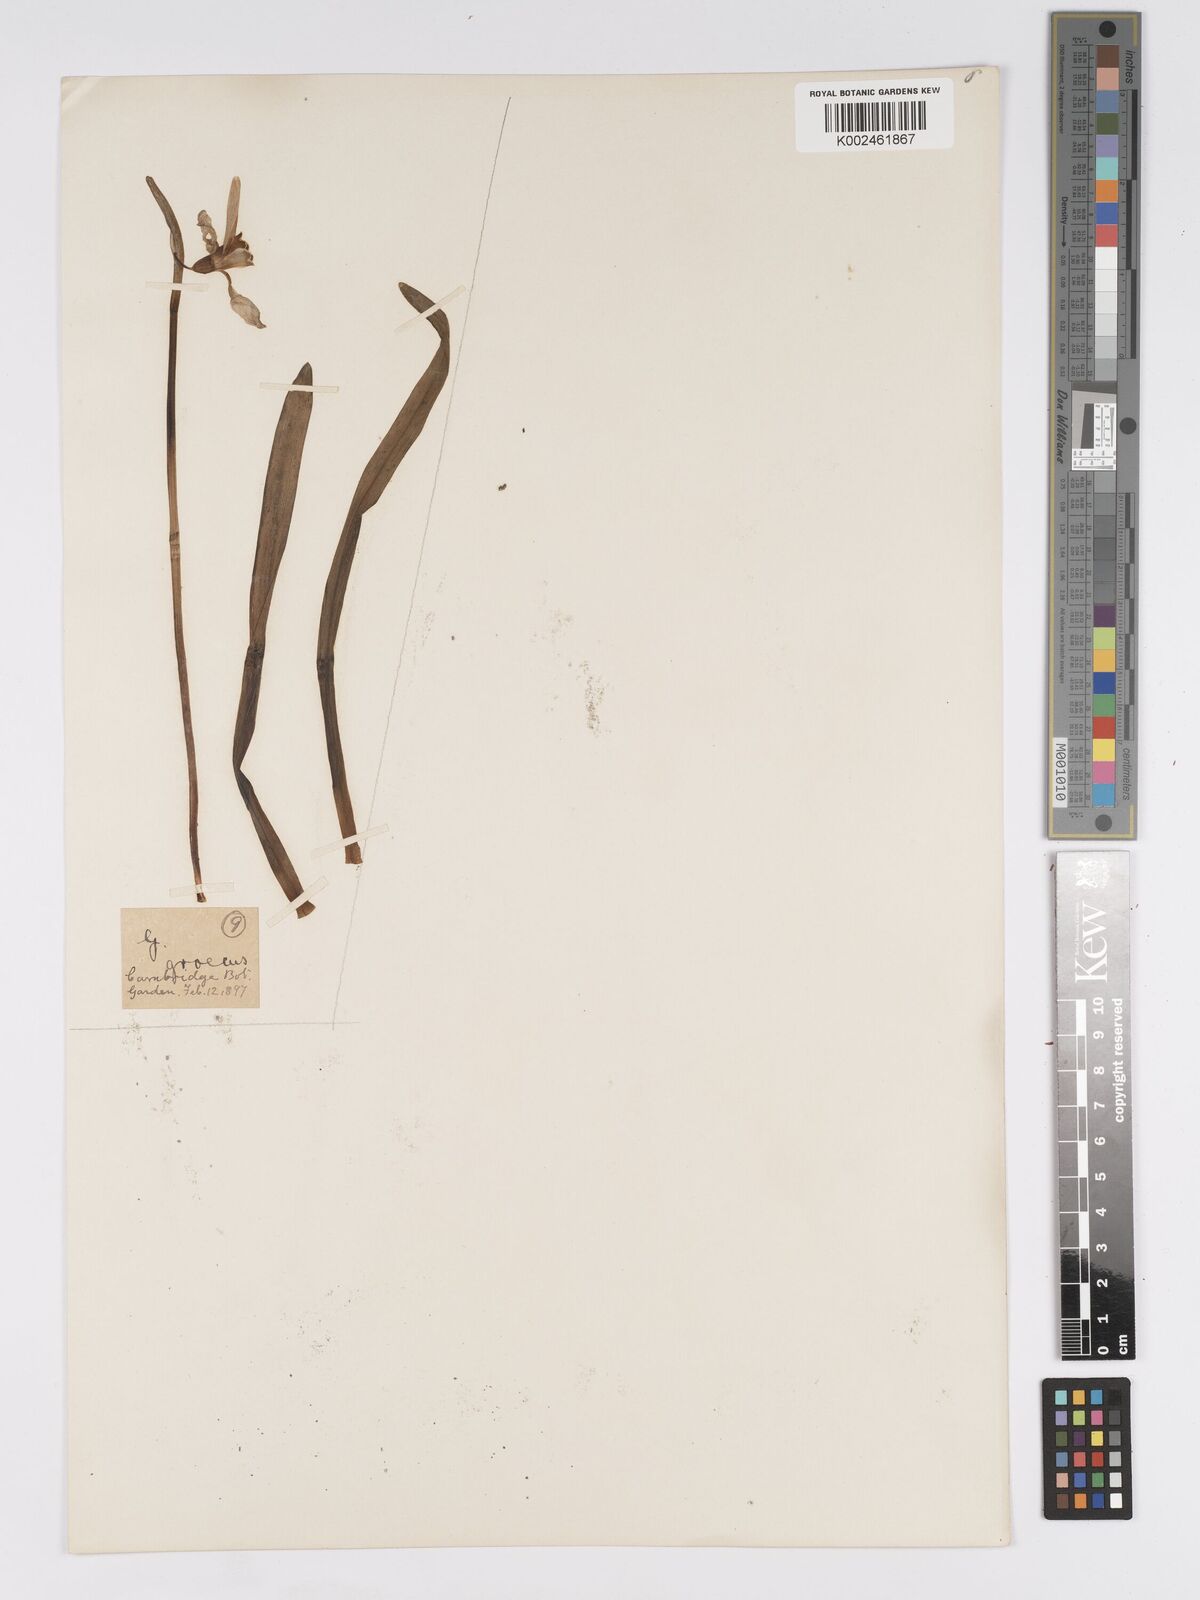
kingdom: Plantae
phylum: Tracheophyta
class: Liliopsida
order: Asparagales
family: Amaryllidaceae
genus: Galanthus
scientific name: Galanthus elwesii
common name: Greater snowdrop
